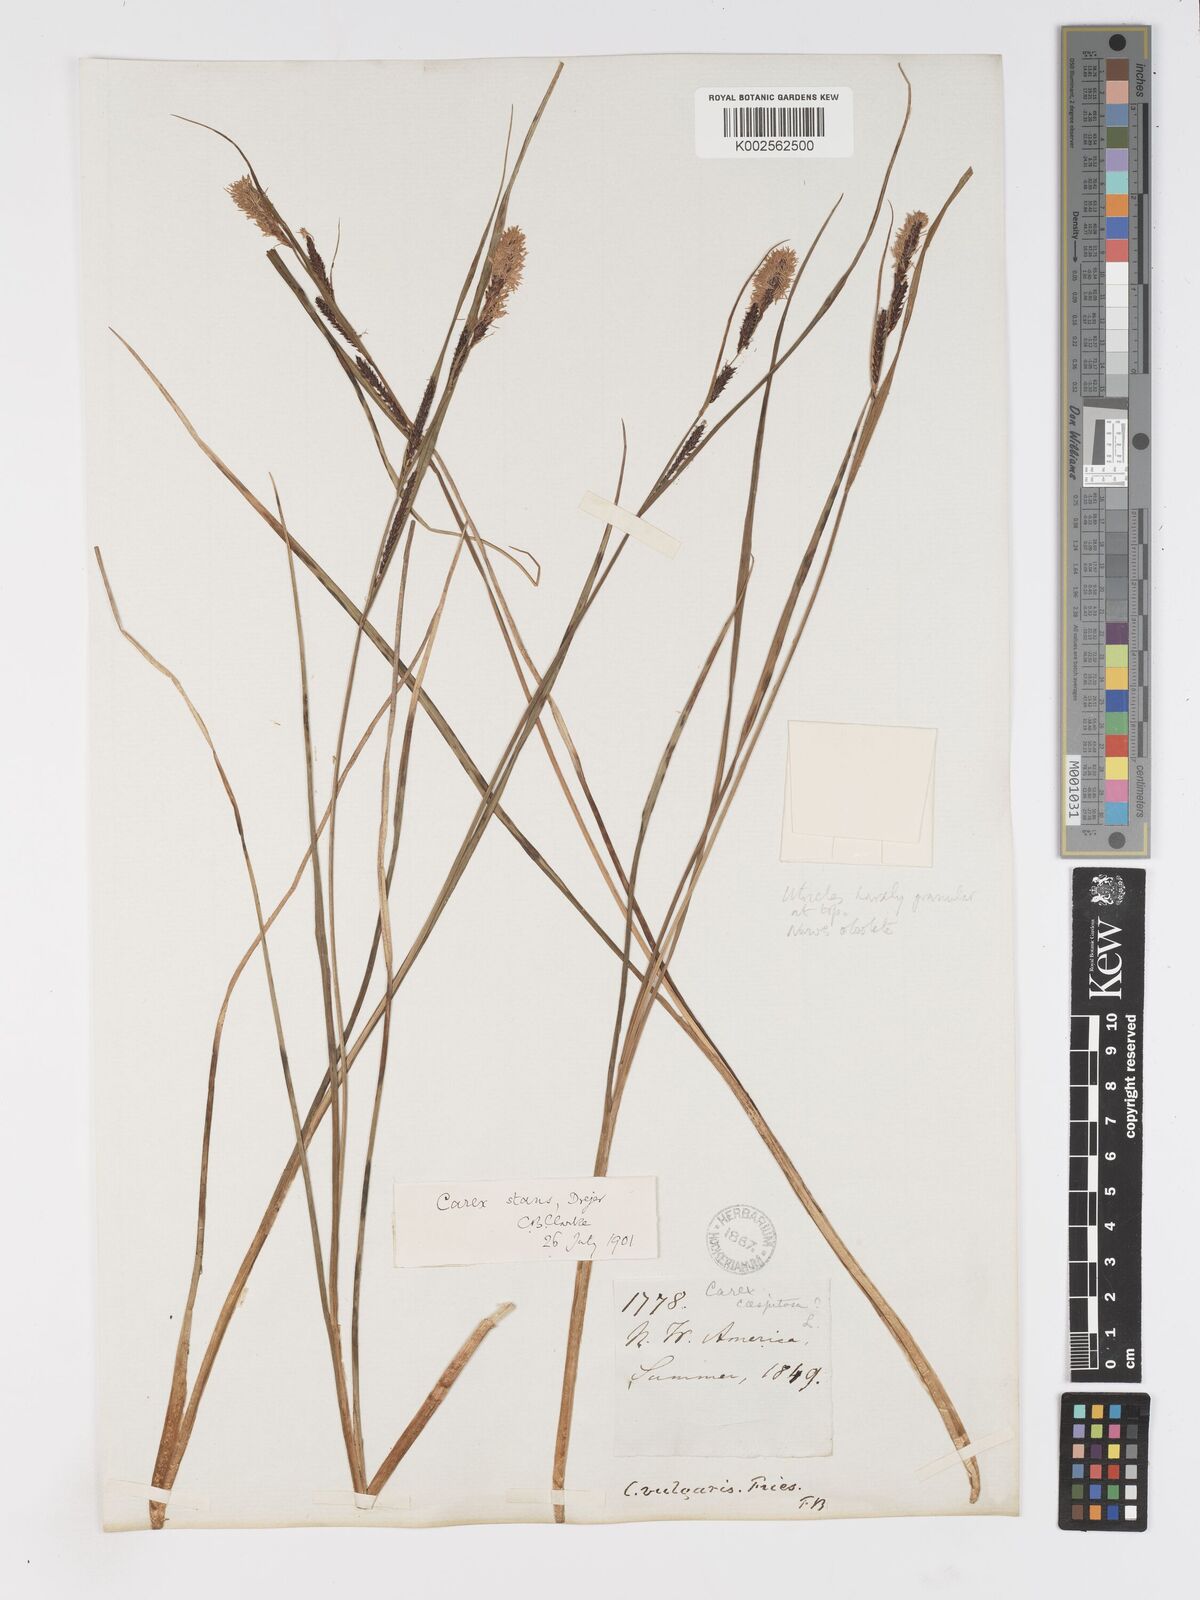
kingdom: Plantae
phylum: Tracheophyta
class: Liliopsida
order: Poales
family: Cyperaceae
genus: Carex
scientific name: Carex
